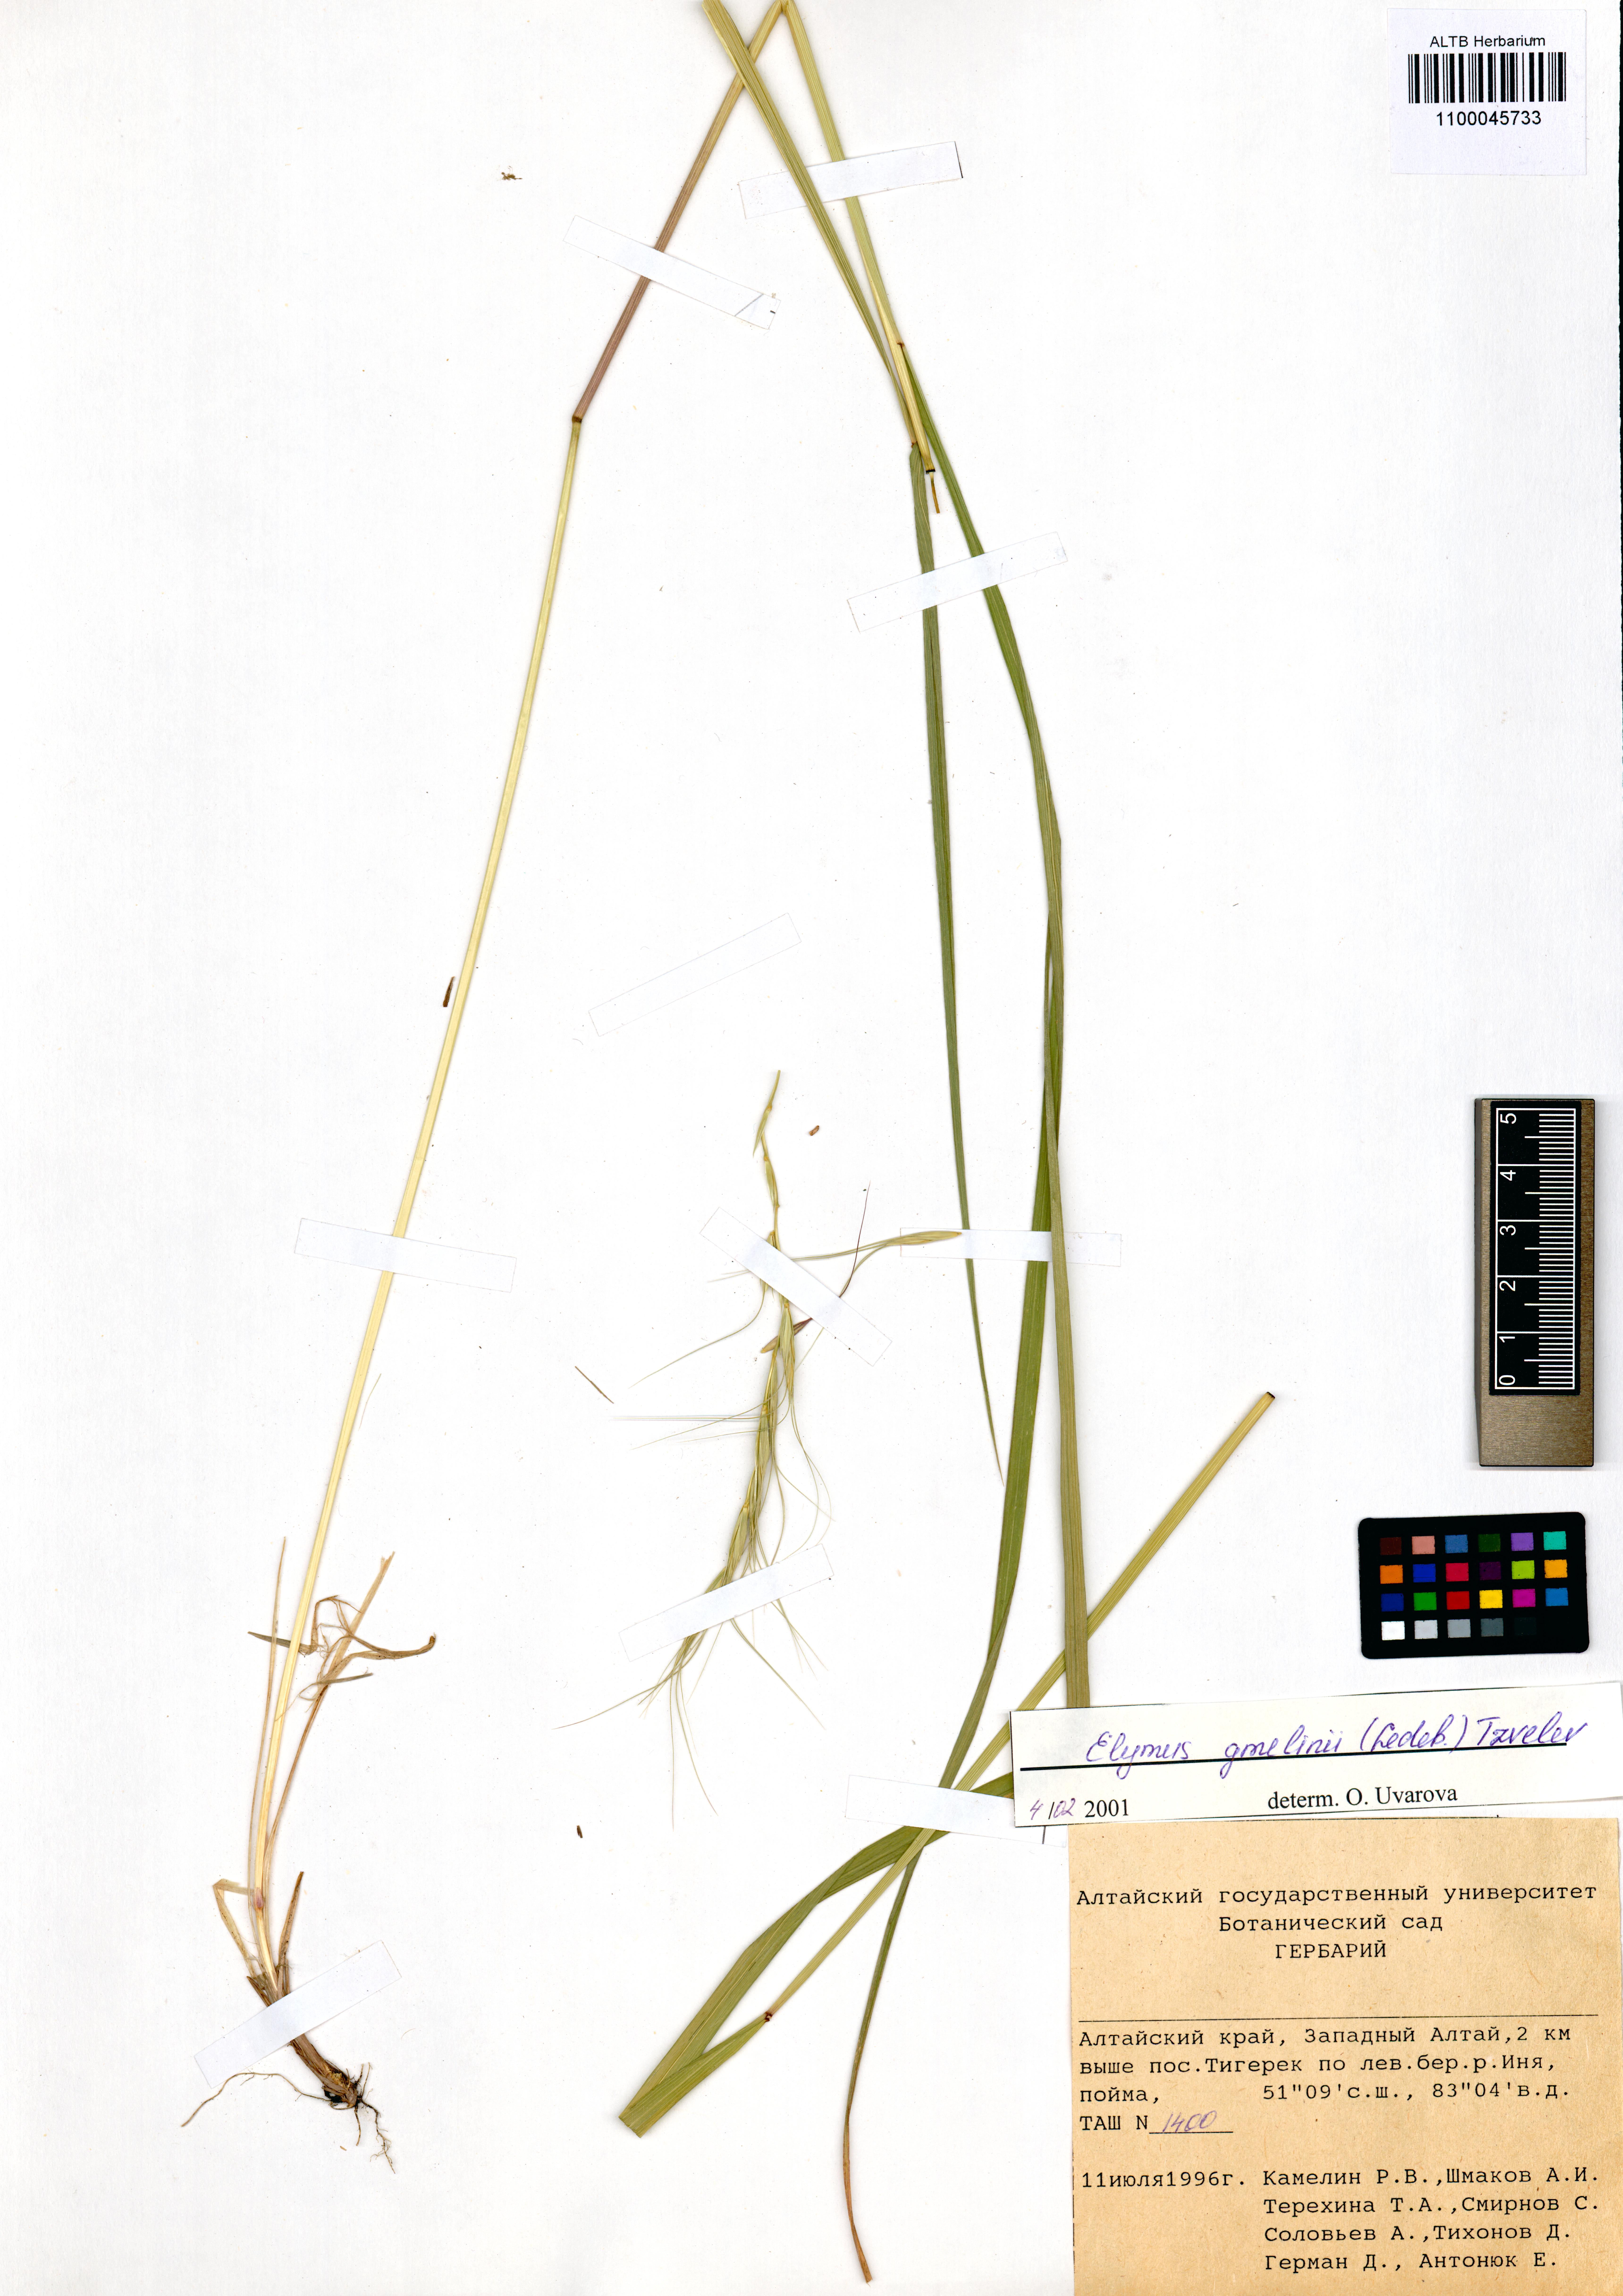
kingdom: Plantae
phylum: Tracheophyta
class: Liliopsida
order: Poales
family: Poaceae
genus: Elymus
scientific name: Elymus gmelinii
